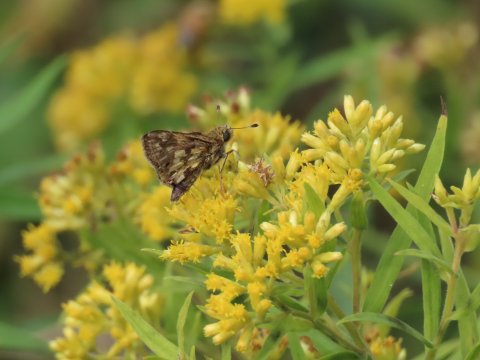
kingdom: Animalia
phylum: Arthropoda
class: Insecta
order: Lepidoptera
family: Hesperiidae
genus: Polites
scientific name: Polites coras
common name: Peck's Skipper
